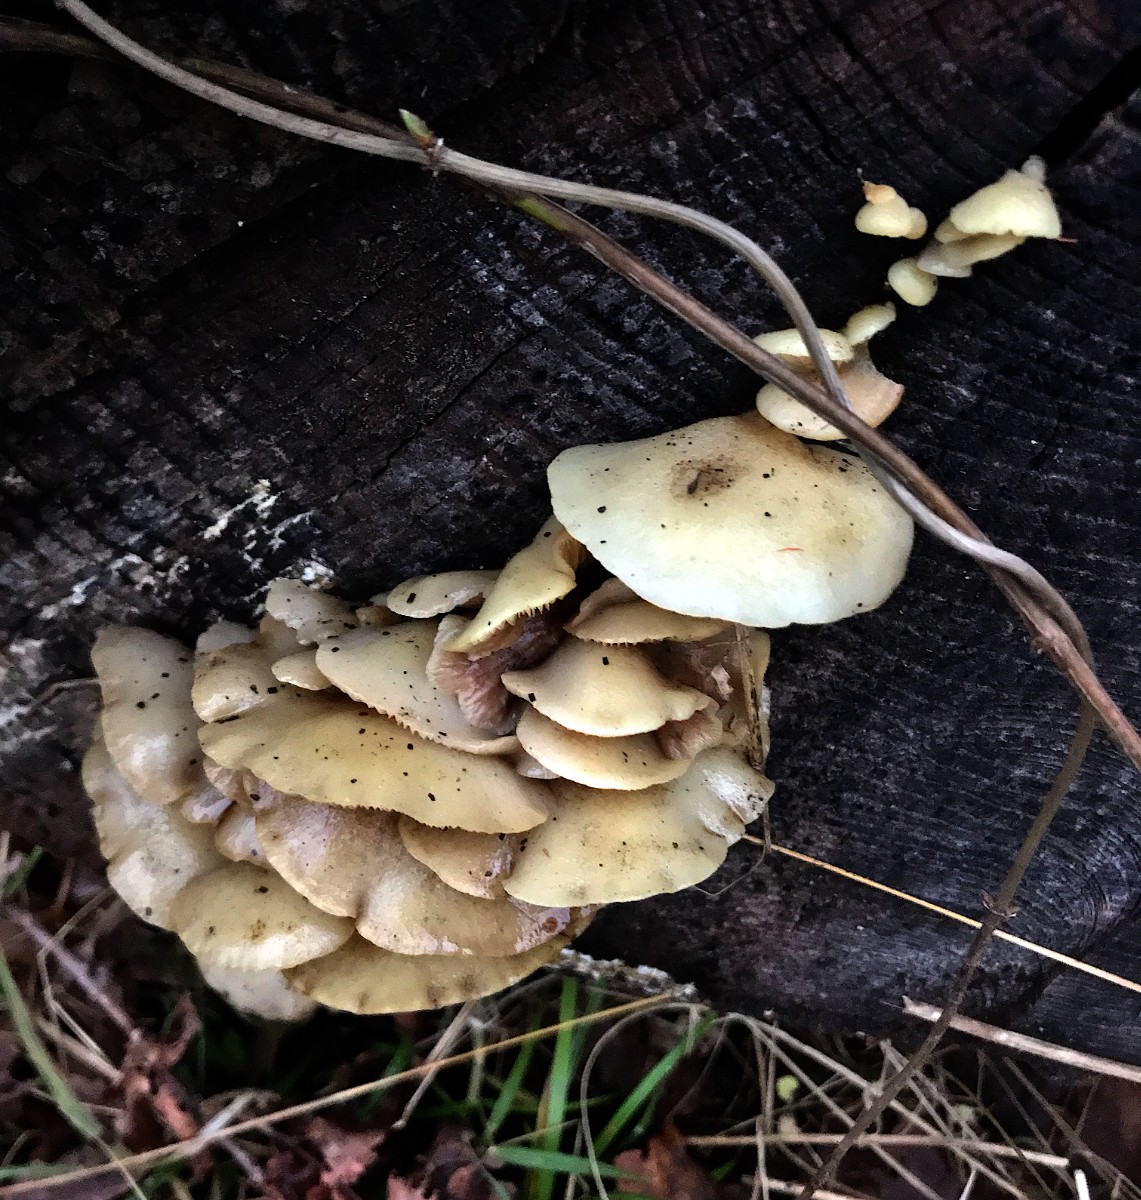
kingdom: Fungi
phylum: Basidiomycota
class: Agaricomycetes
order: Agaricales
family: Crepidotaceae
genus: Crepidotus
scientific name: Crepidotus mollis
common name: blød muslingesvamp
